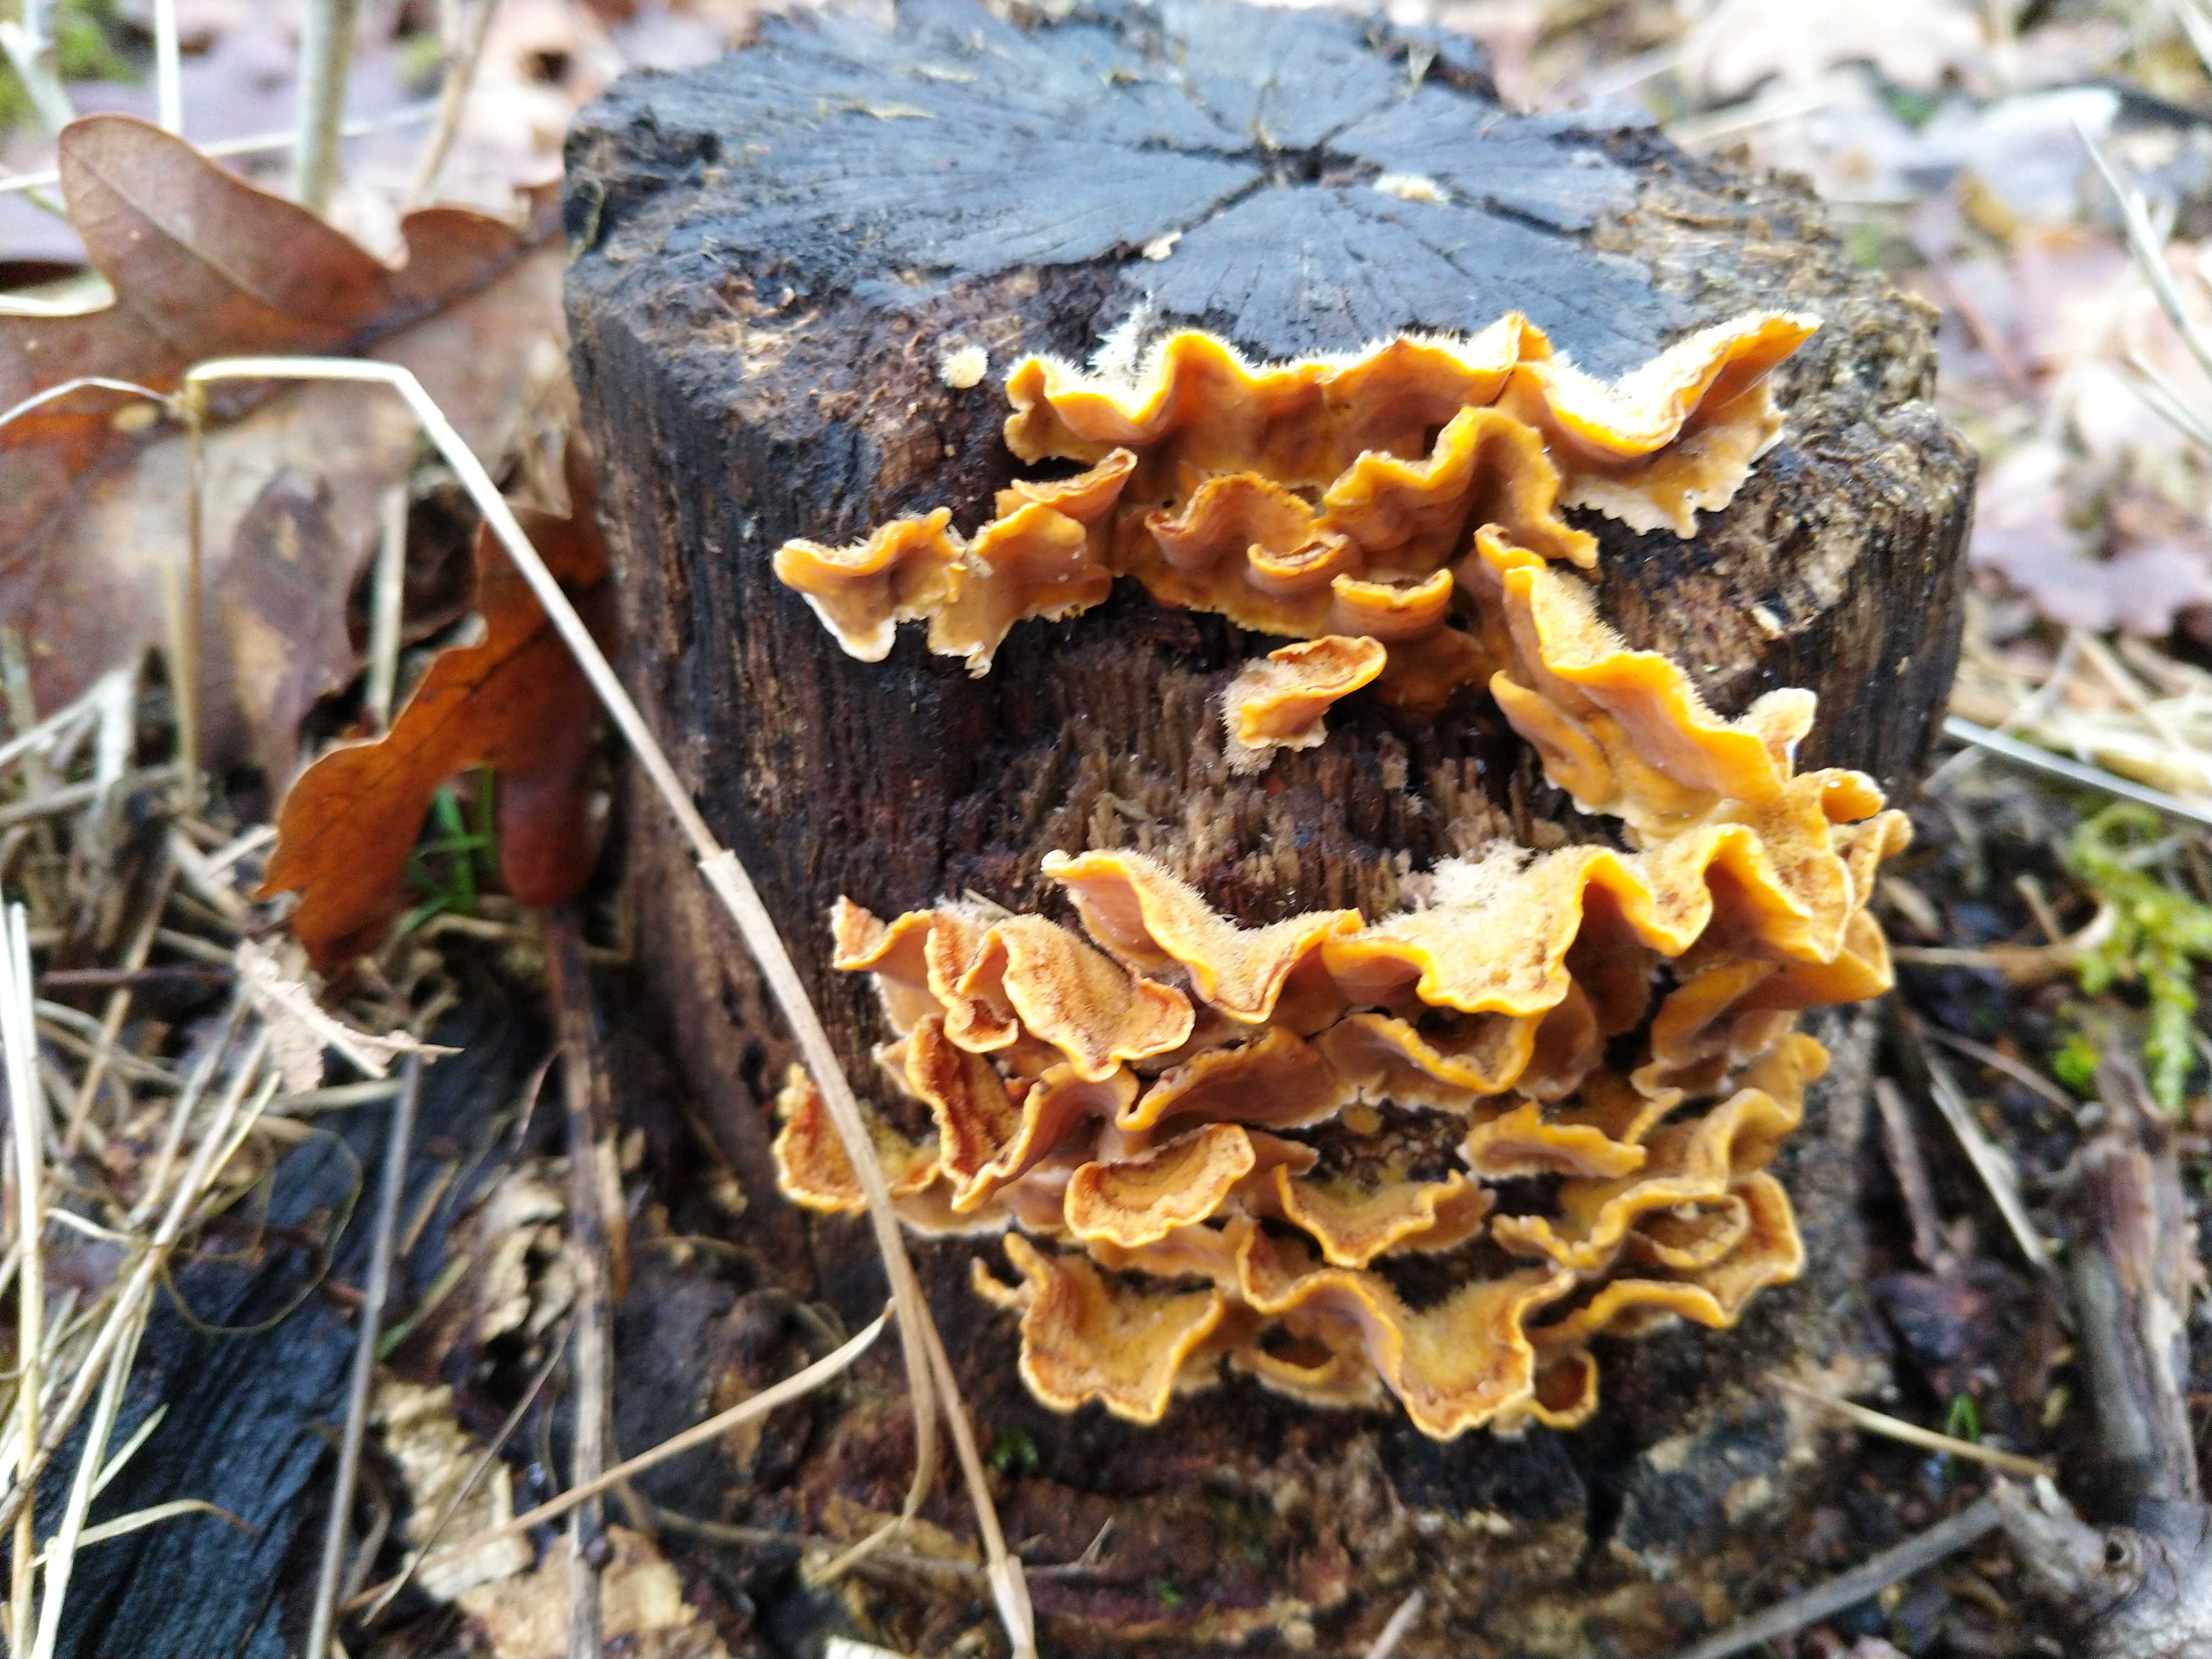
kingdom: Fungi
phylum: Basidiomycota
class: Agaricomycetes
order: Russulales
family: Stereaceae
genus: Stereum
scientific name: Stereum hirsutum
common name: håret lædersvamp
